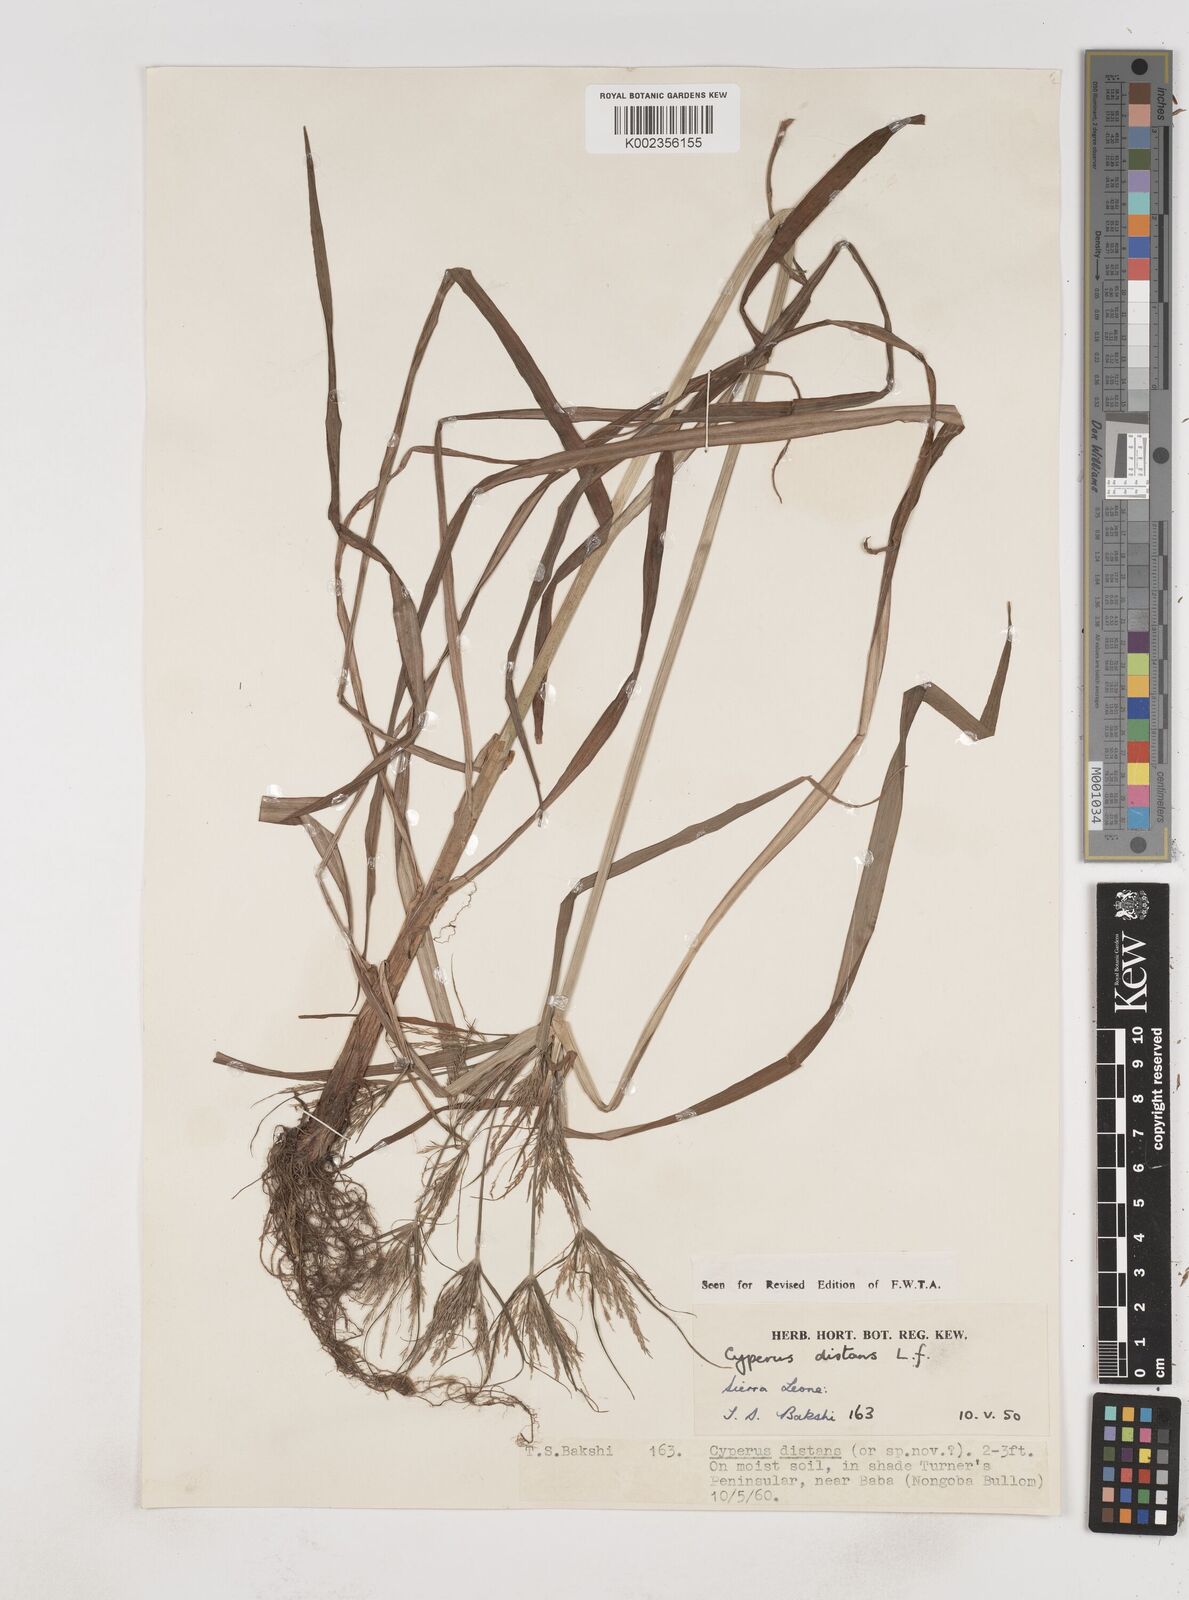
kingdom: Plantae
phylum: Tracheophyta
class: Liliopsida
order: Poales
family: Cyperaceae
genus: Cyperus
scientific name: Cyperus distans
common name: Slender cyperus
